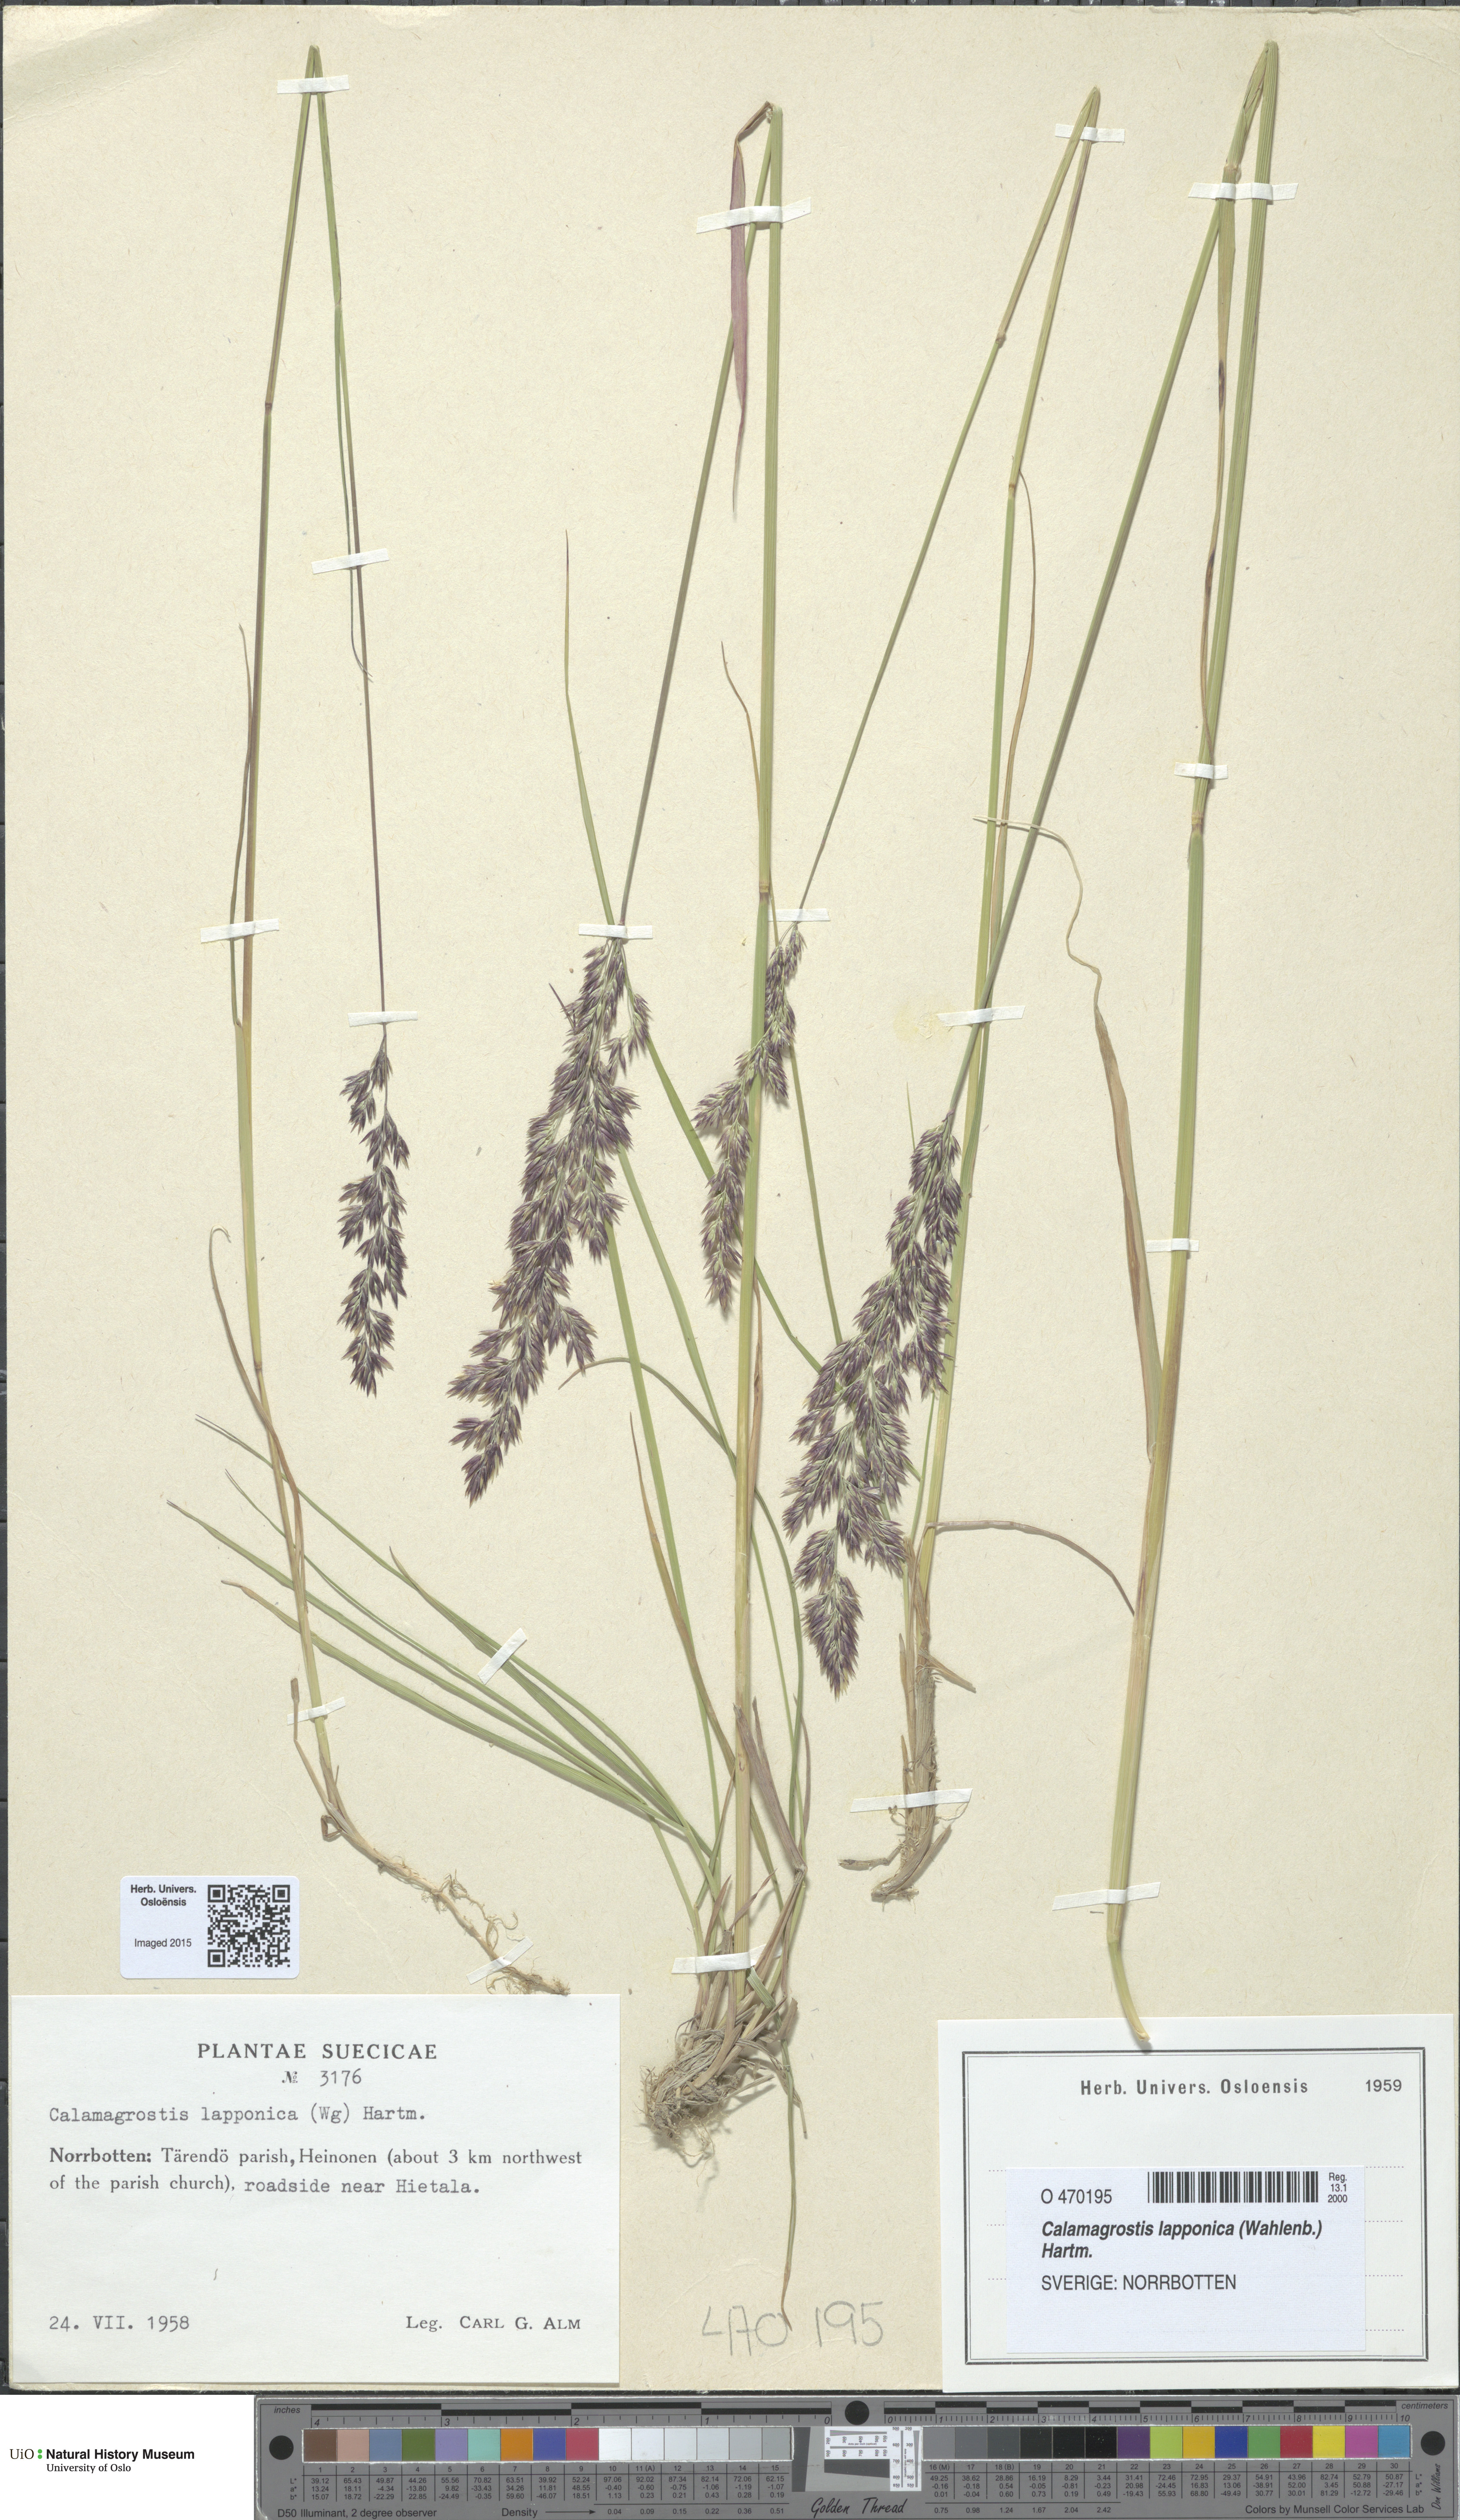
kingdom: Plantae
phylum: Tracheophyta
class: Liliopsida
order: Poales
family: Poaceae
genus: Calamagrostis
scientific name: Calamagrostis lapponica
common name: Lapland reedgrass
